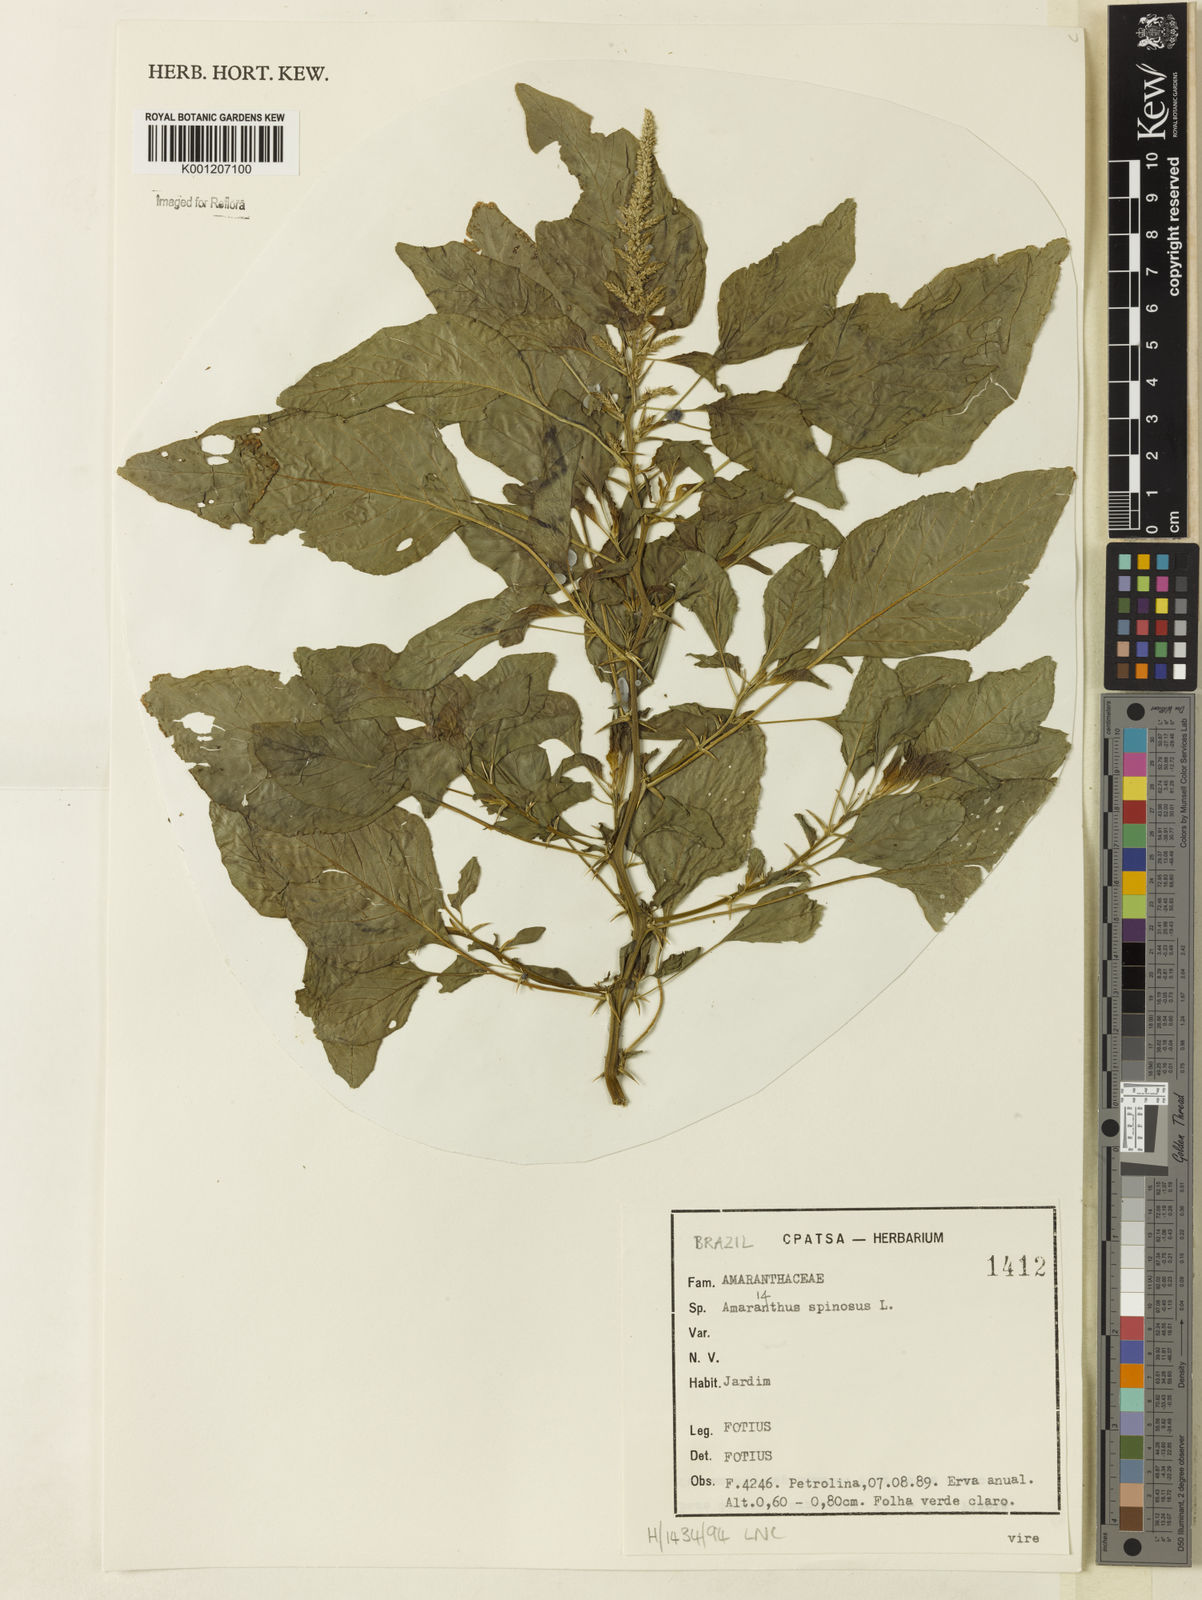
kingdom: Plantae
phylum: Tracheophyta
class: Magnoliopsida
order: Caryophyllales
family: Amaranthaceae
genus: Amaranthus
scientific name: Amaranthus spinosus
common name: Spiny amaranth
